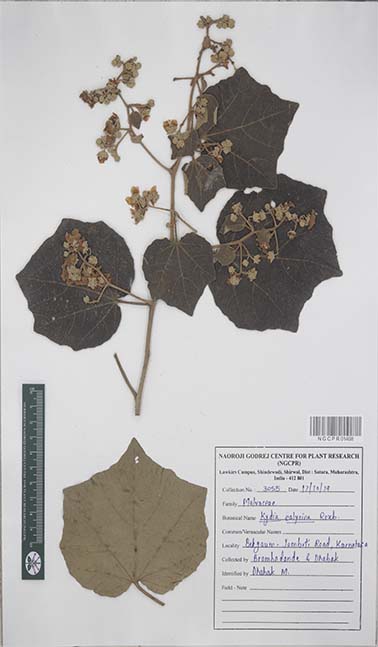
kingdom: Plantae
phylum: Tracheophyta
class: Magnoliopsida
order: Malvales
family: Malvaceae
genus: Kydia
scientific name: Kydia calycina
